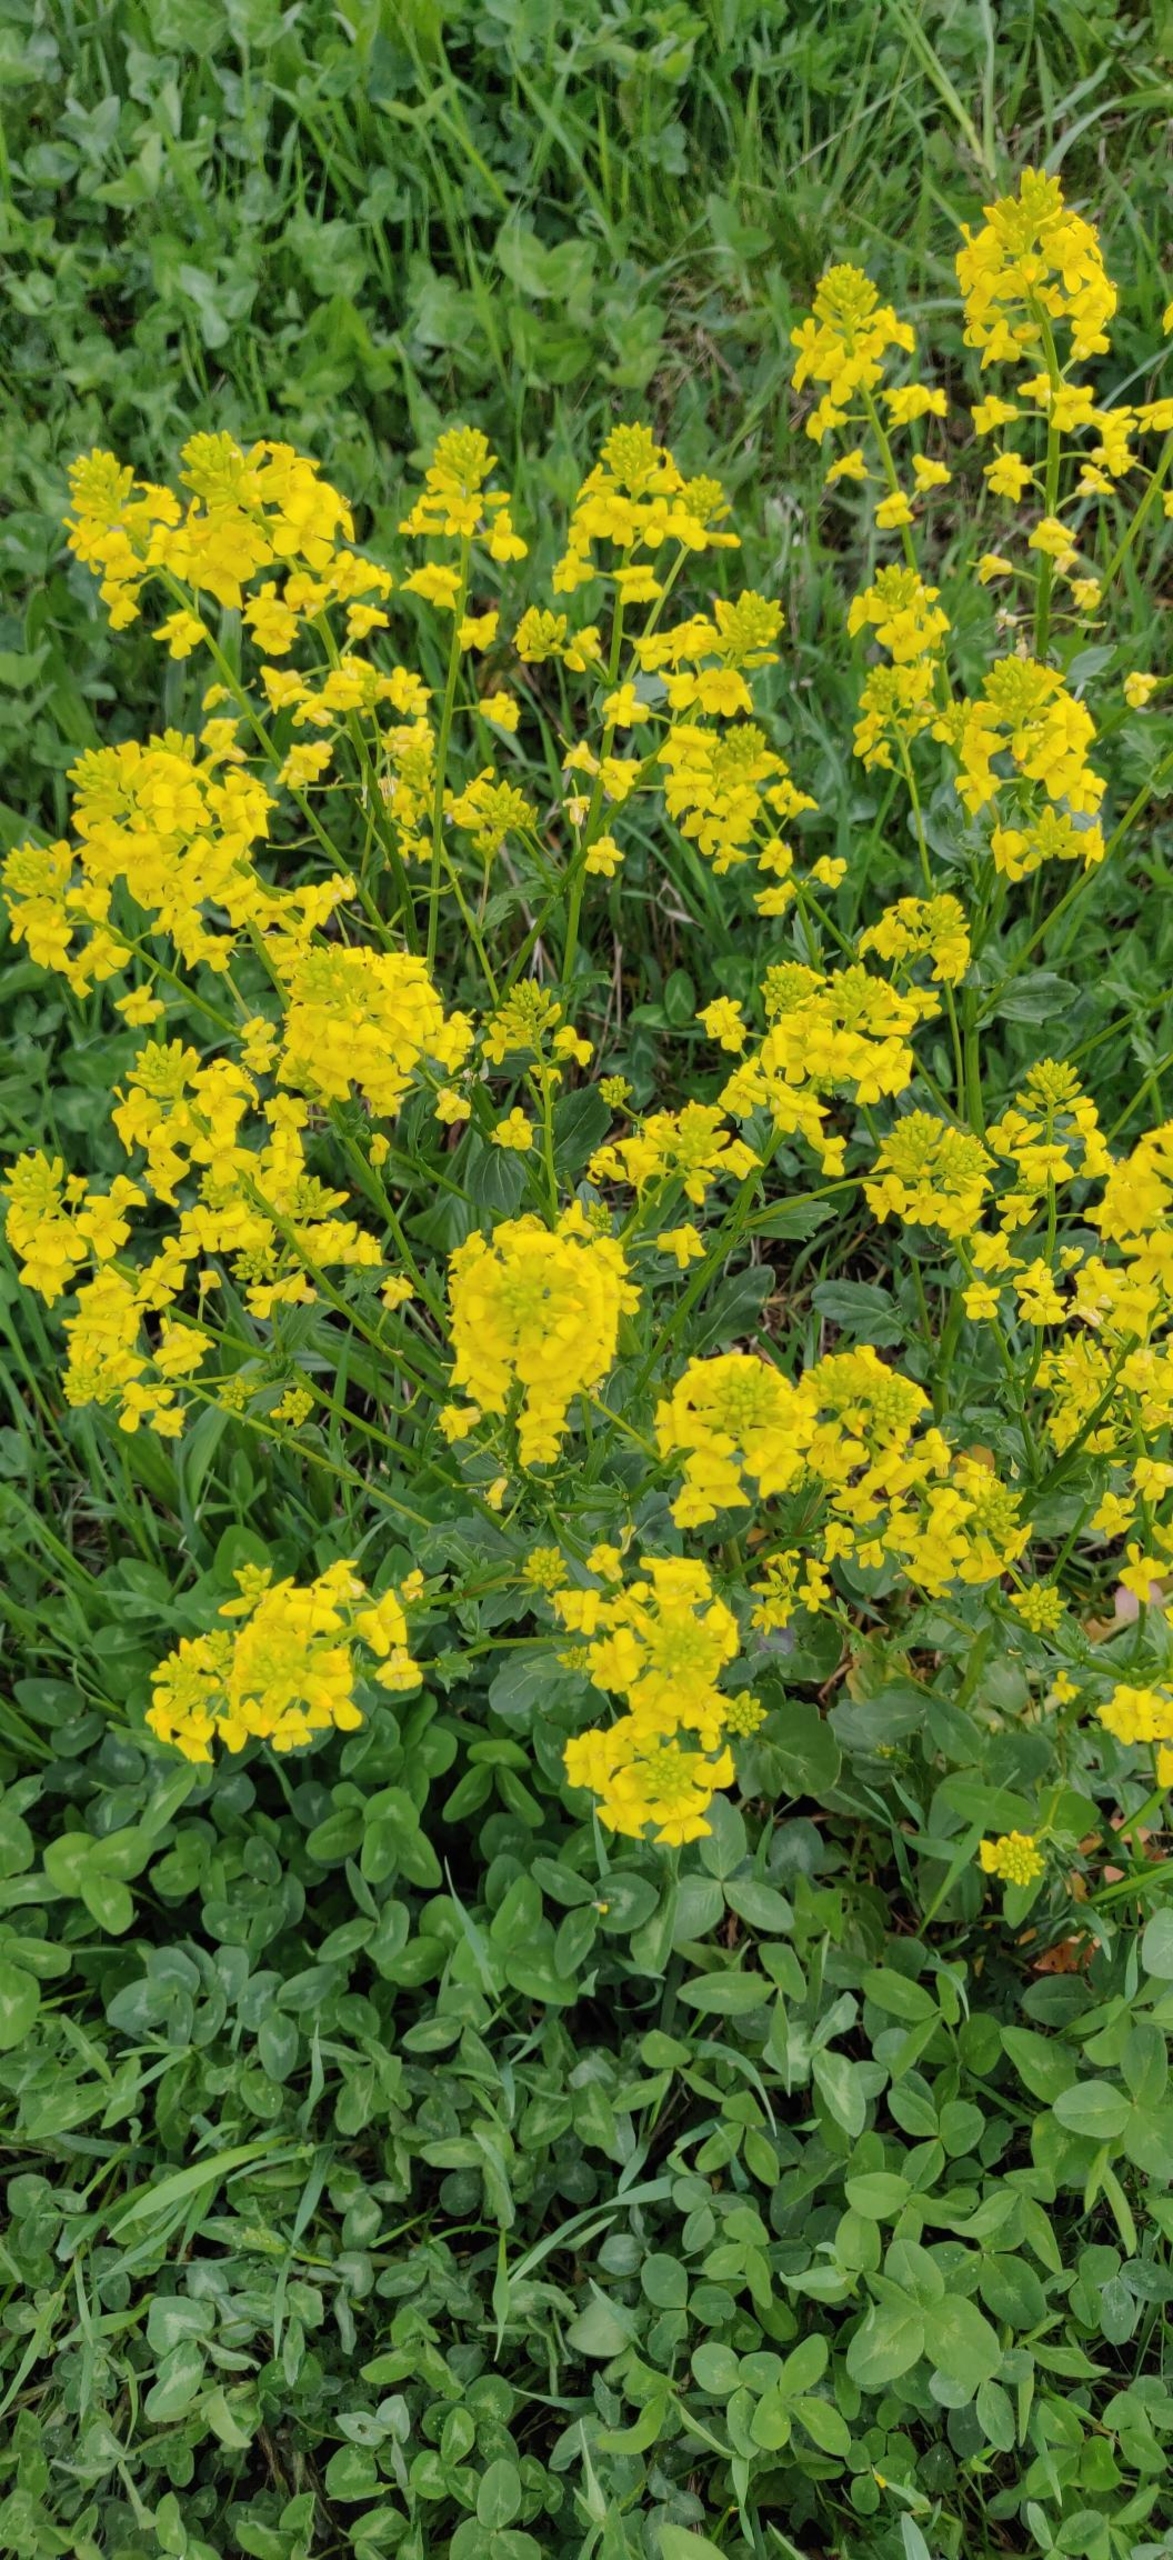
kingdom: Plantae
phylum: Tracheophyta
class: Magnoliopsida
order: Brassicales
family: Brassicaceae
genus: Brassica
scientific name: Brassica napus
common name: Raps
